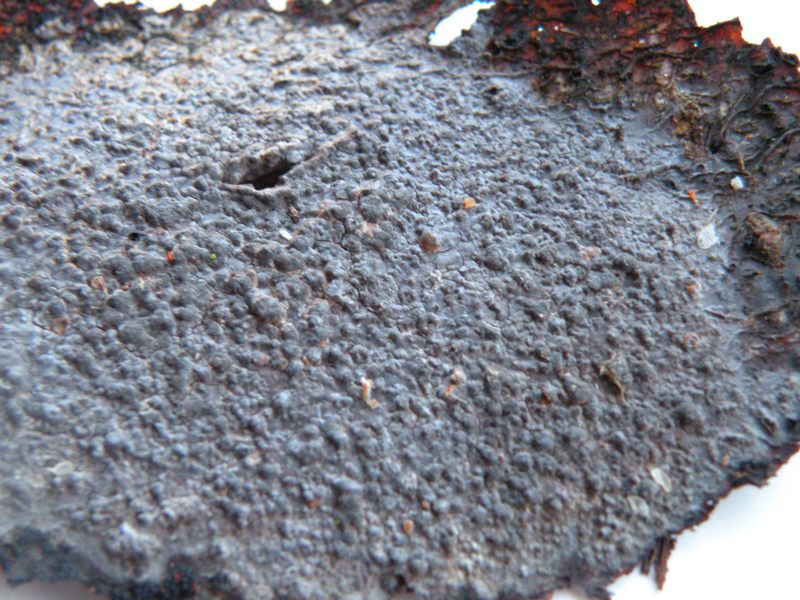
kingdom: Fungi
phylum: Basidiomycota
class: Agaricomycetes
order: Russulales
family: Peniophoraceae
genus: Peniophora
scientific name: Peniophora rufomarginata
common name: linde-voksskind
